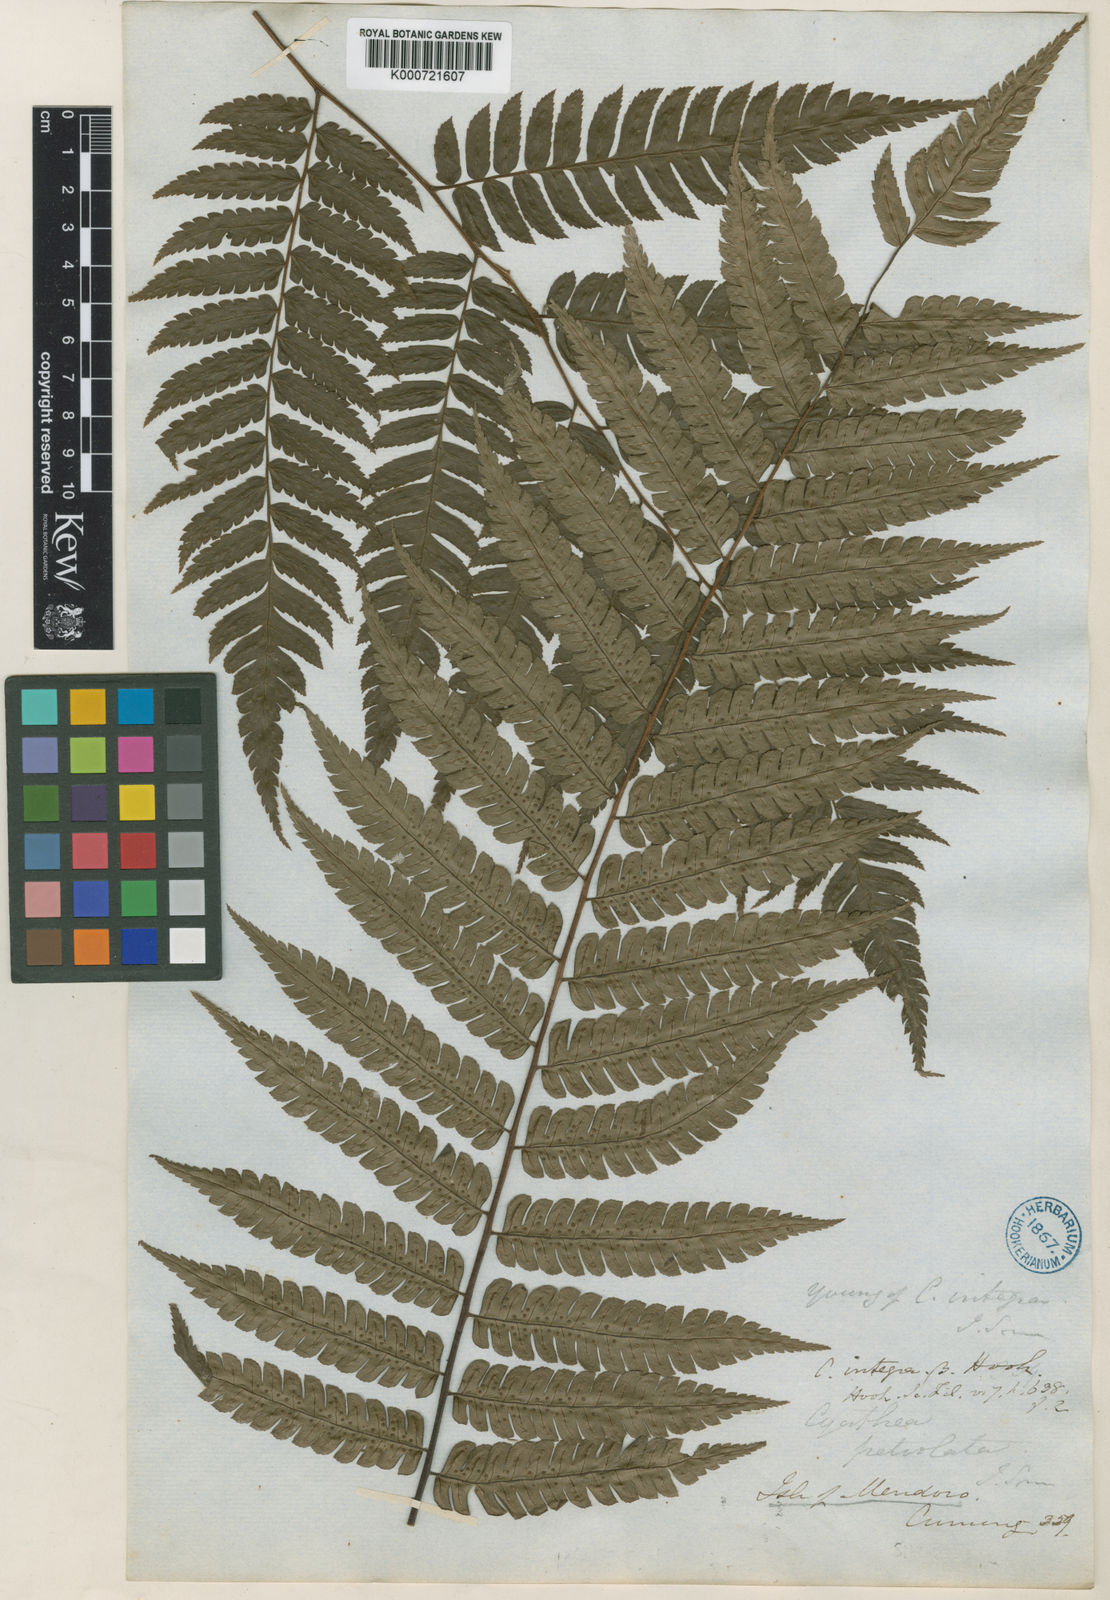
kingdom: Plantae
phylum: Tracheophyta
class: Polypodiopsida
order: Cyatheales
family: Cyatheaceae
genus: Sphaeropteris
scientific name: Sphaeropteris integra
